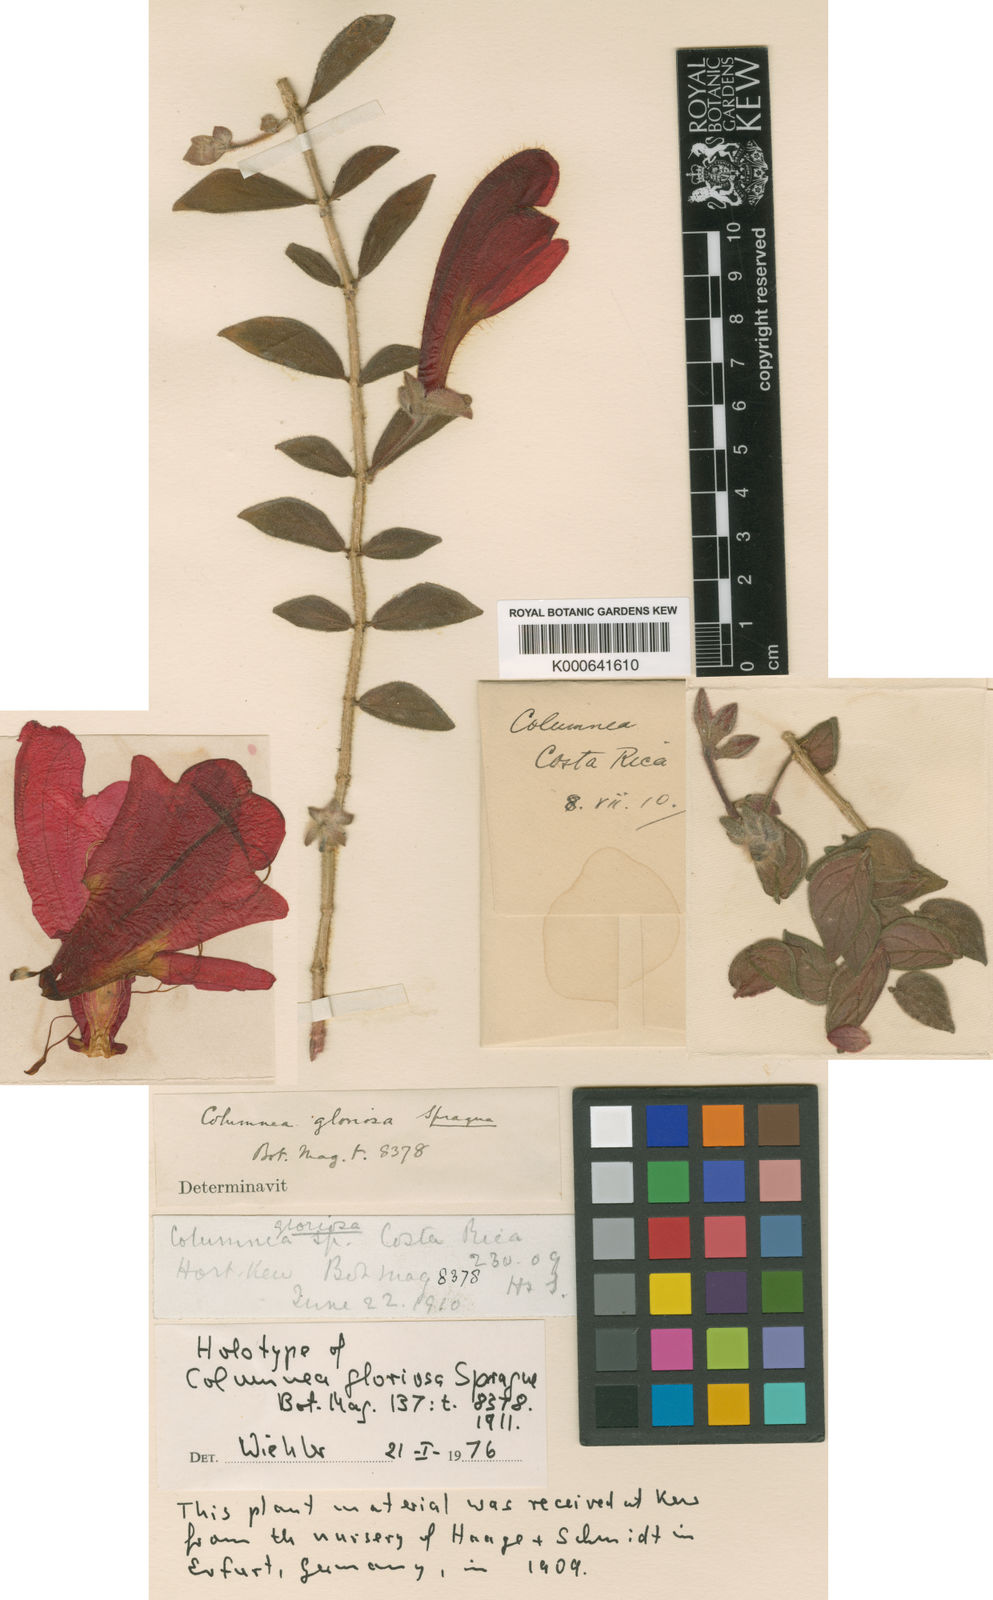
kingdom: Plantae
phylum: Tracheophyta
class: Magnoliopsida
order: Lamiales
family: Gesneriaceae
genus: Columnea
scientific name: Columnea microcalyx
